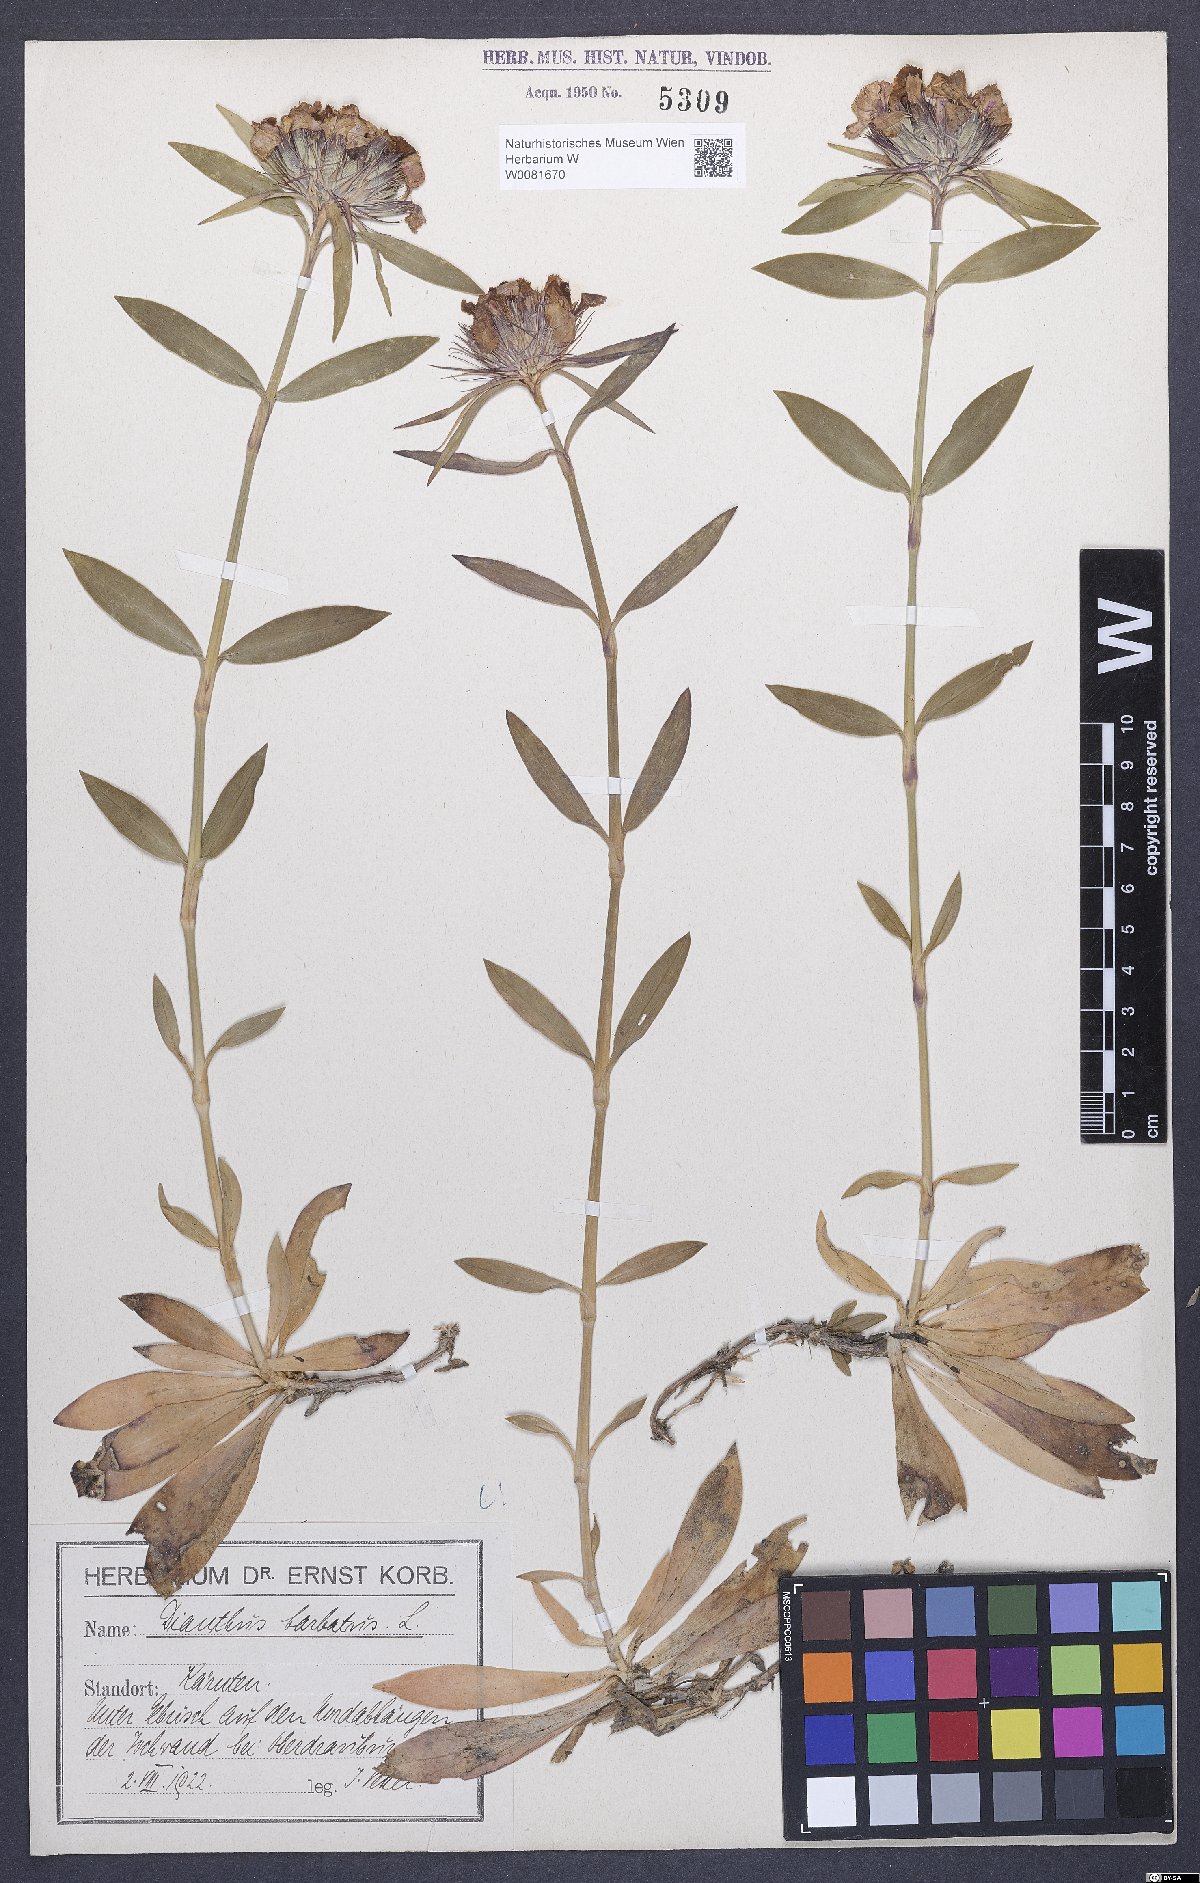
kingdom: Plantae
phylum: Tracheophyta
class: Magnoliopsida
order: Caryophyllales
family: Caryophyllaceae
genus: Dianthus
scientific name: Dianthus barbatus
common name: Sweet-william
